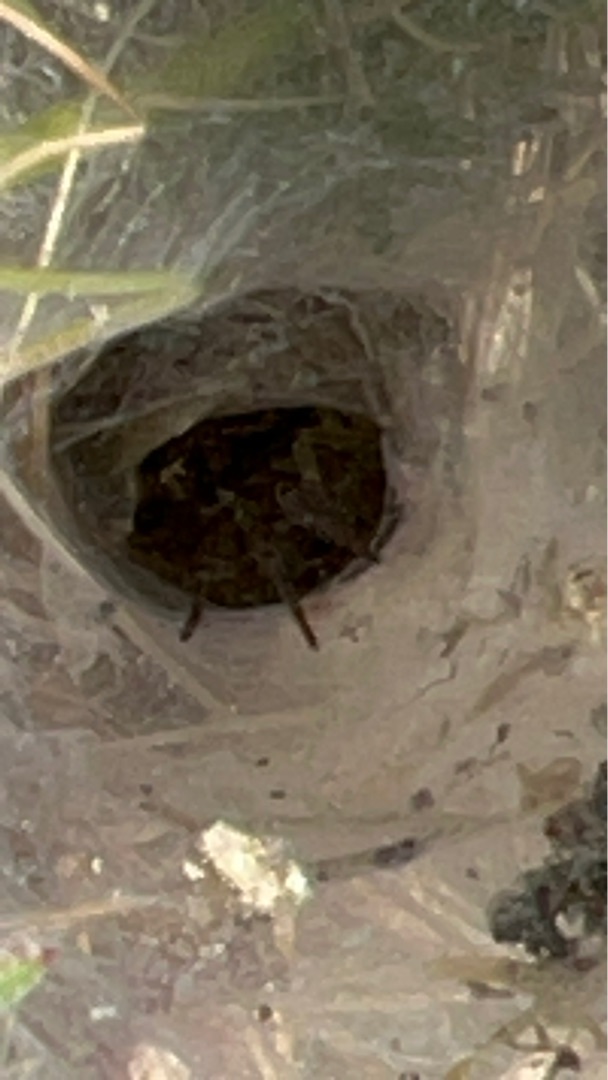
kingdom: Animalia
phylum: Arthropoda
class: Arachnida
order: Araneae
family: Agelenidae
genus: Agelena
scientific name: Agelena labyrinthica
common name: Labyrintedderkop
